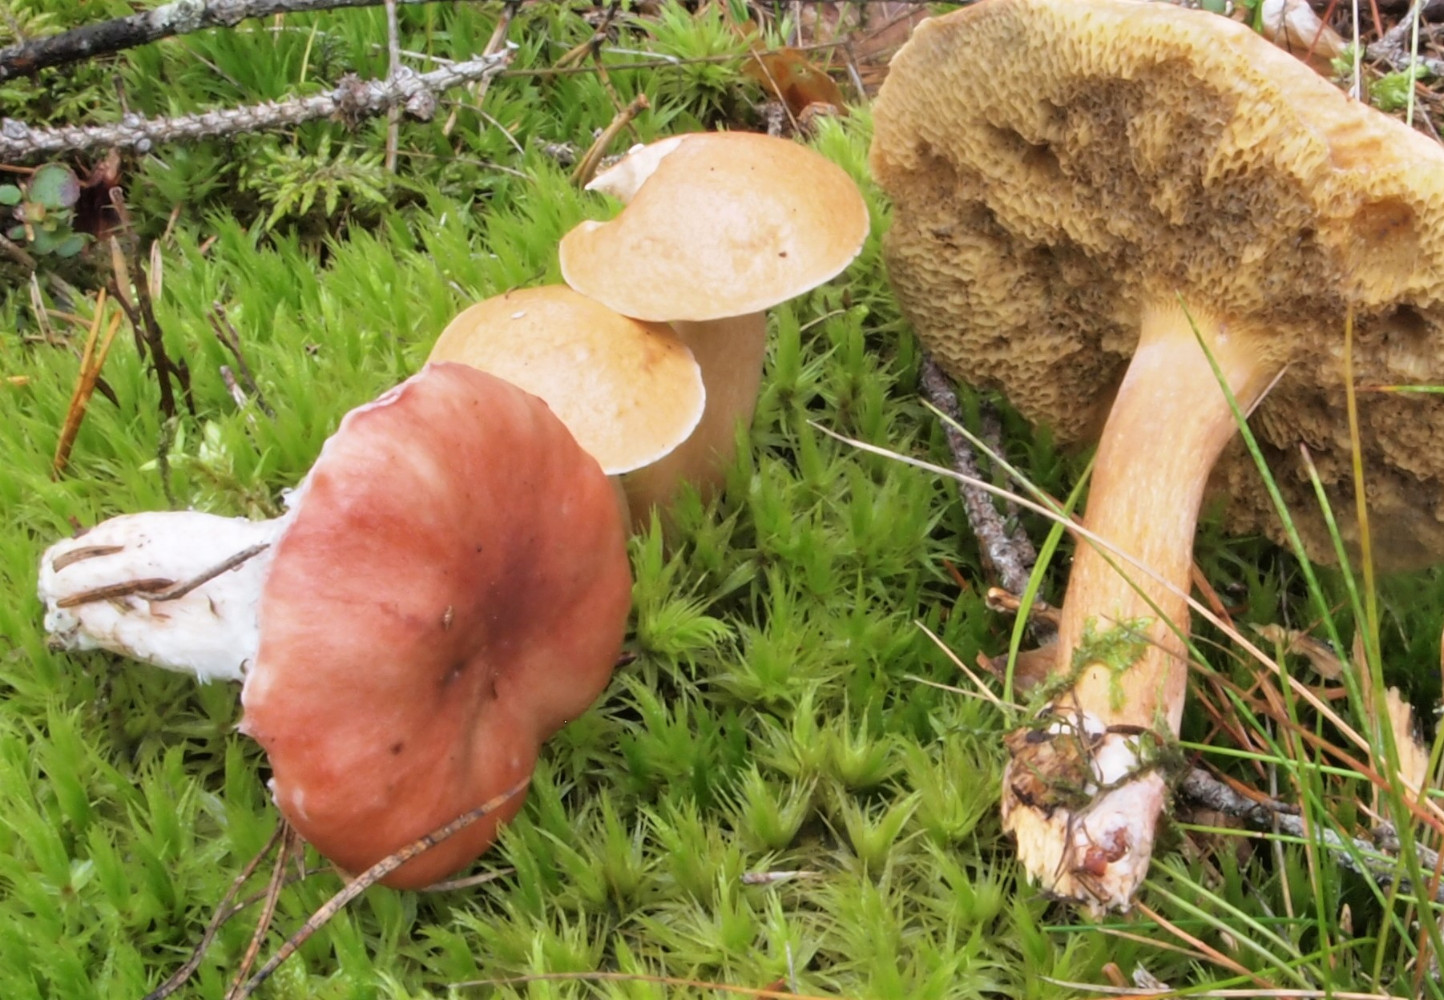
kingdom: Fungi
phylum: Basidiomycota
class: Agaricomycetes
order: Boletales
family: Gomphidiaceae
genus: Gomphidius
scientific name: Gomphidius roseus
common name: rosenrød slimslør
